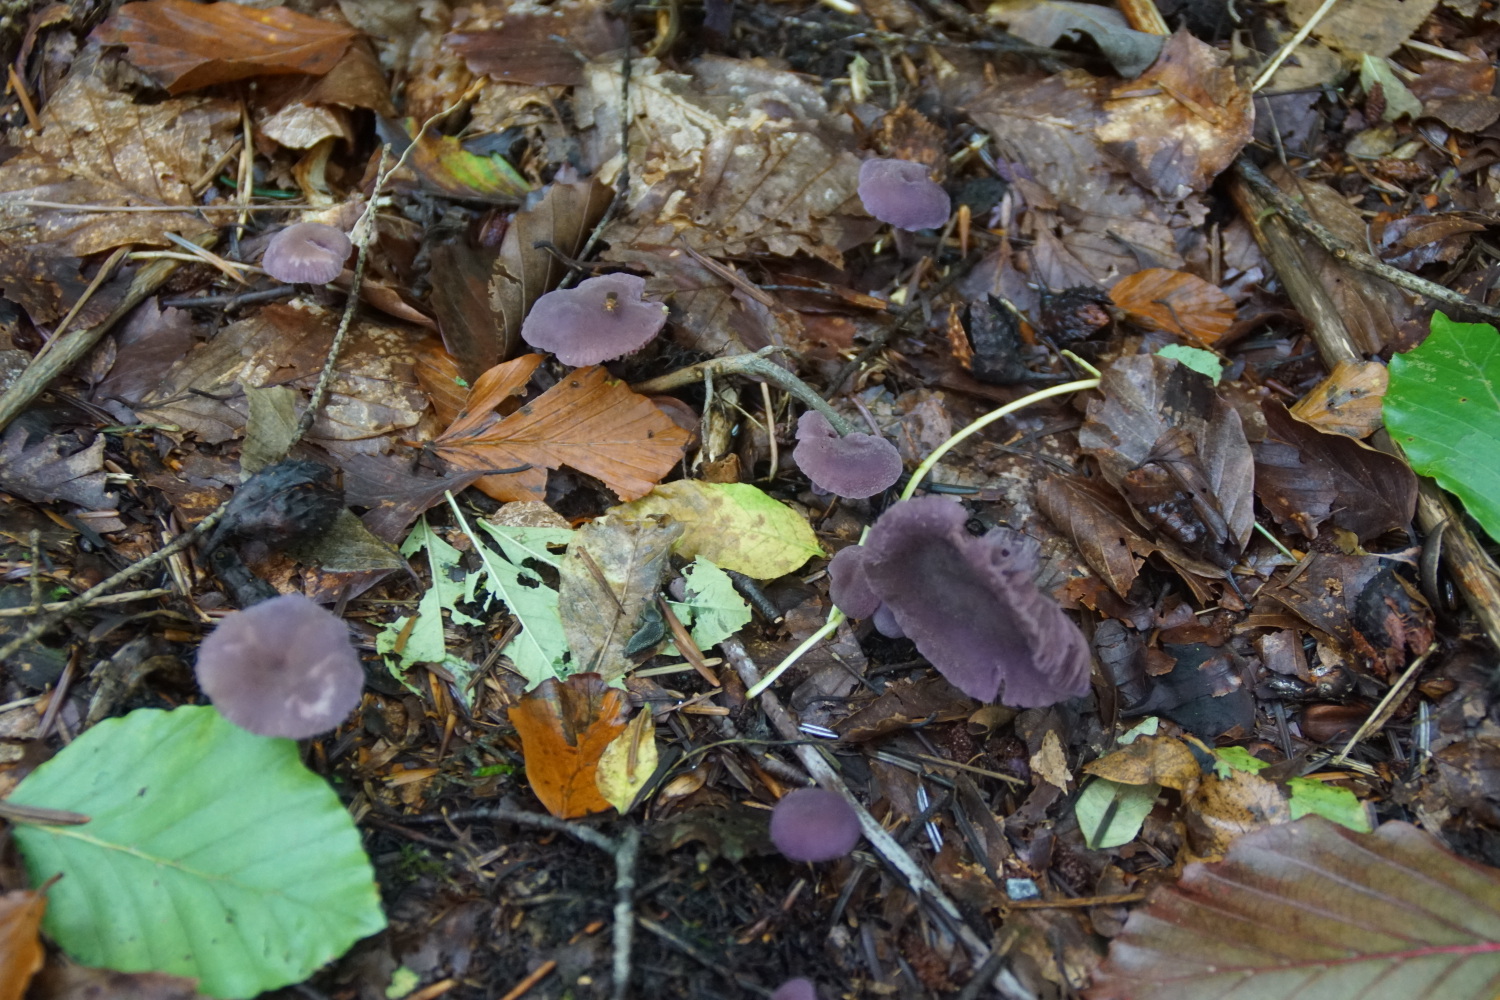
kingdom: Fungi
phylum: Basidiomycota
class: Agaricomycetes
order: Agaricales
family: Hydnangiaceae
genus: Laccaria
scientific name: Laccaria amethystina
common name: violet ametysthat
